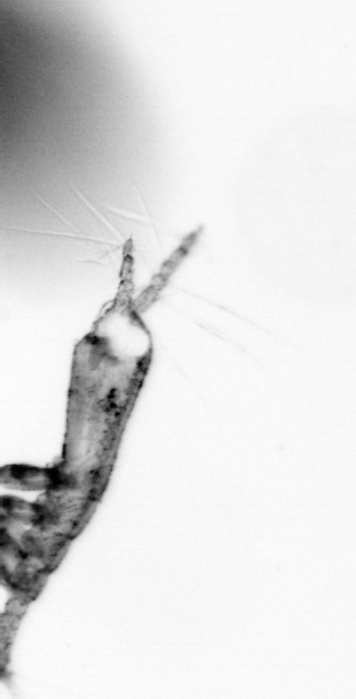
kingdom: Animalia
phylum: Arthropoda
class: Copepoda
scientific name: Copepoda
